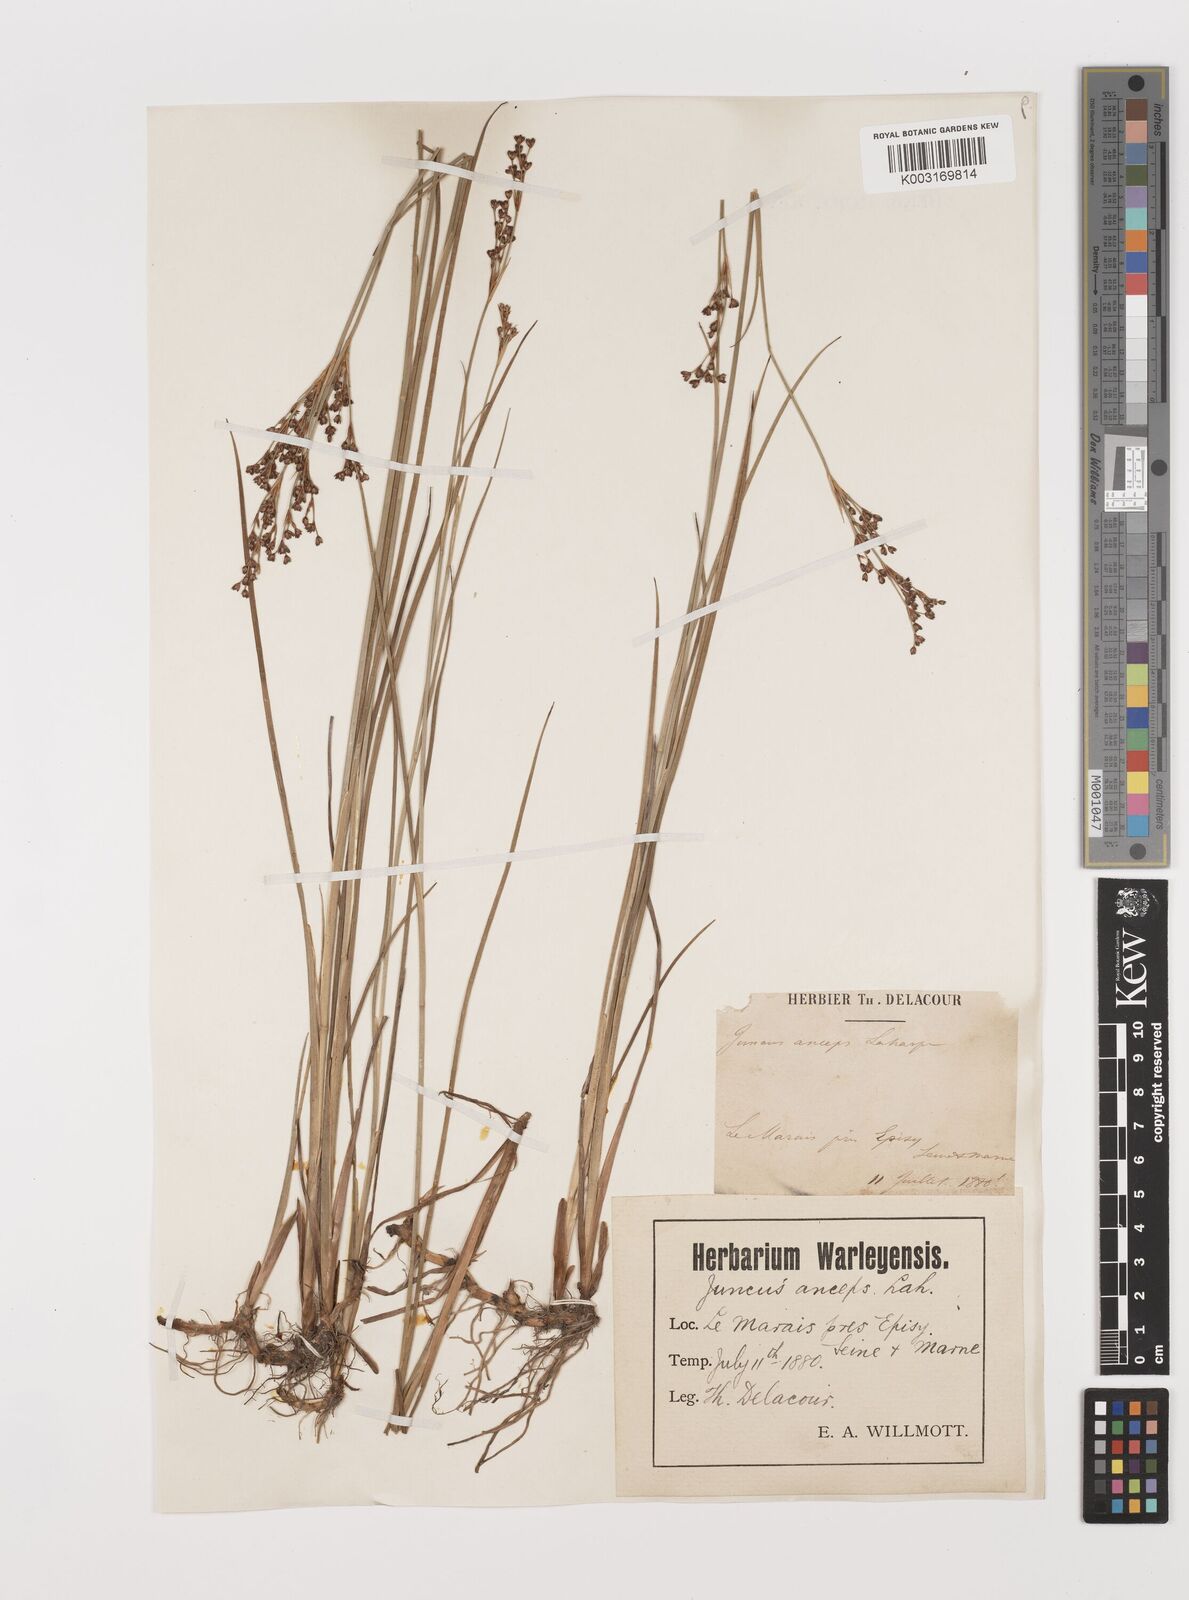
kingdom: Plantae
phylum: Tracheophyta
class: Liliopsida
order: Poales
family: Juncaceae
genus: Juncus
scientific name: Juncus anceps
